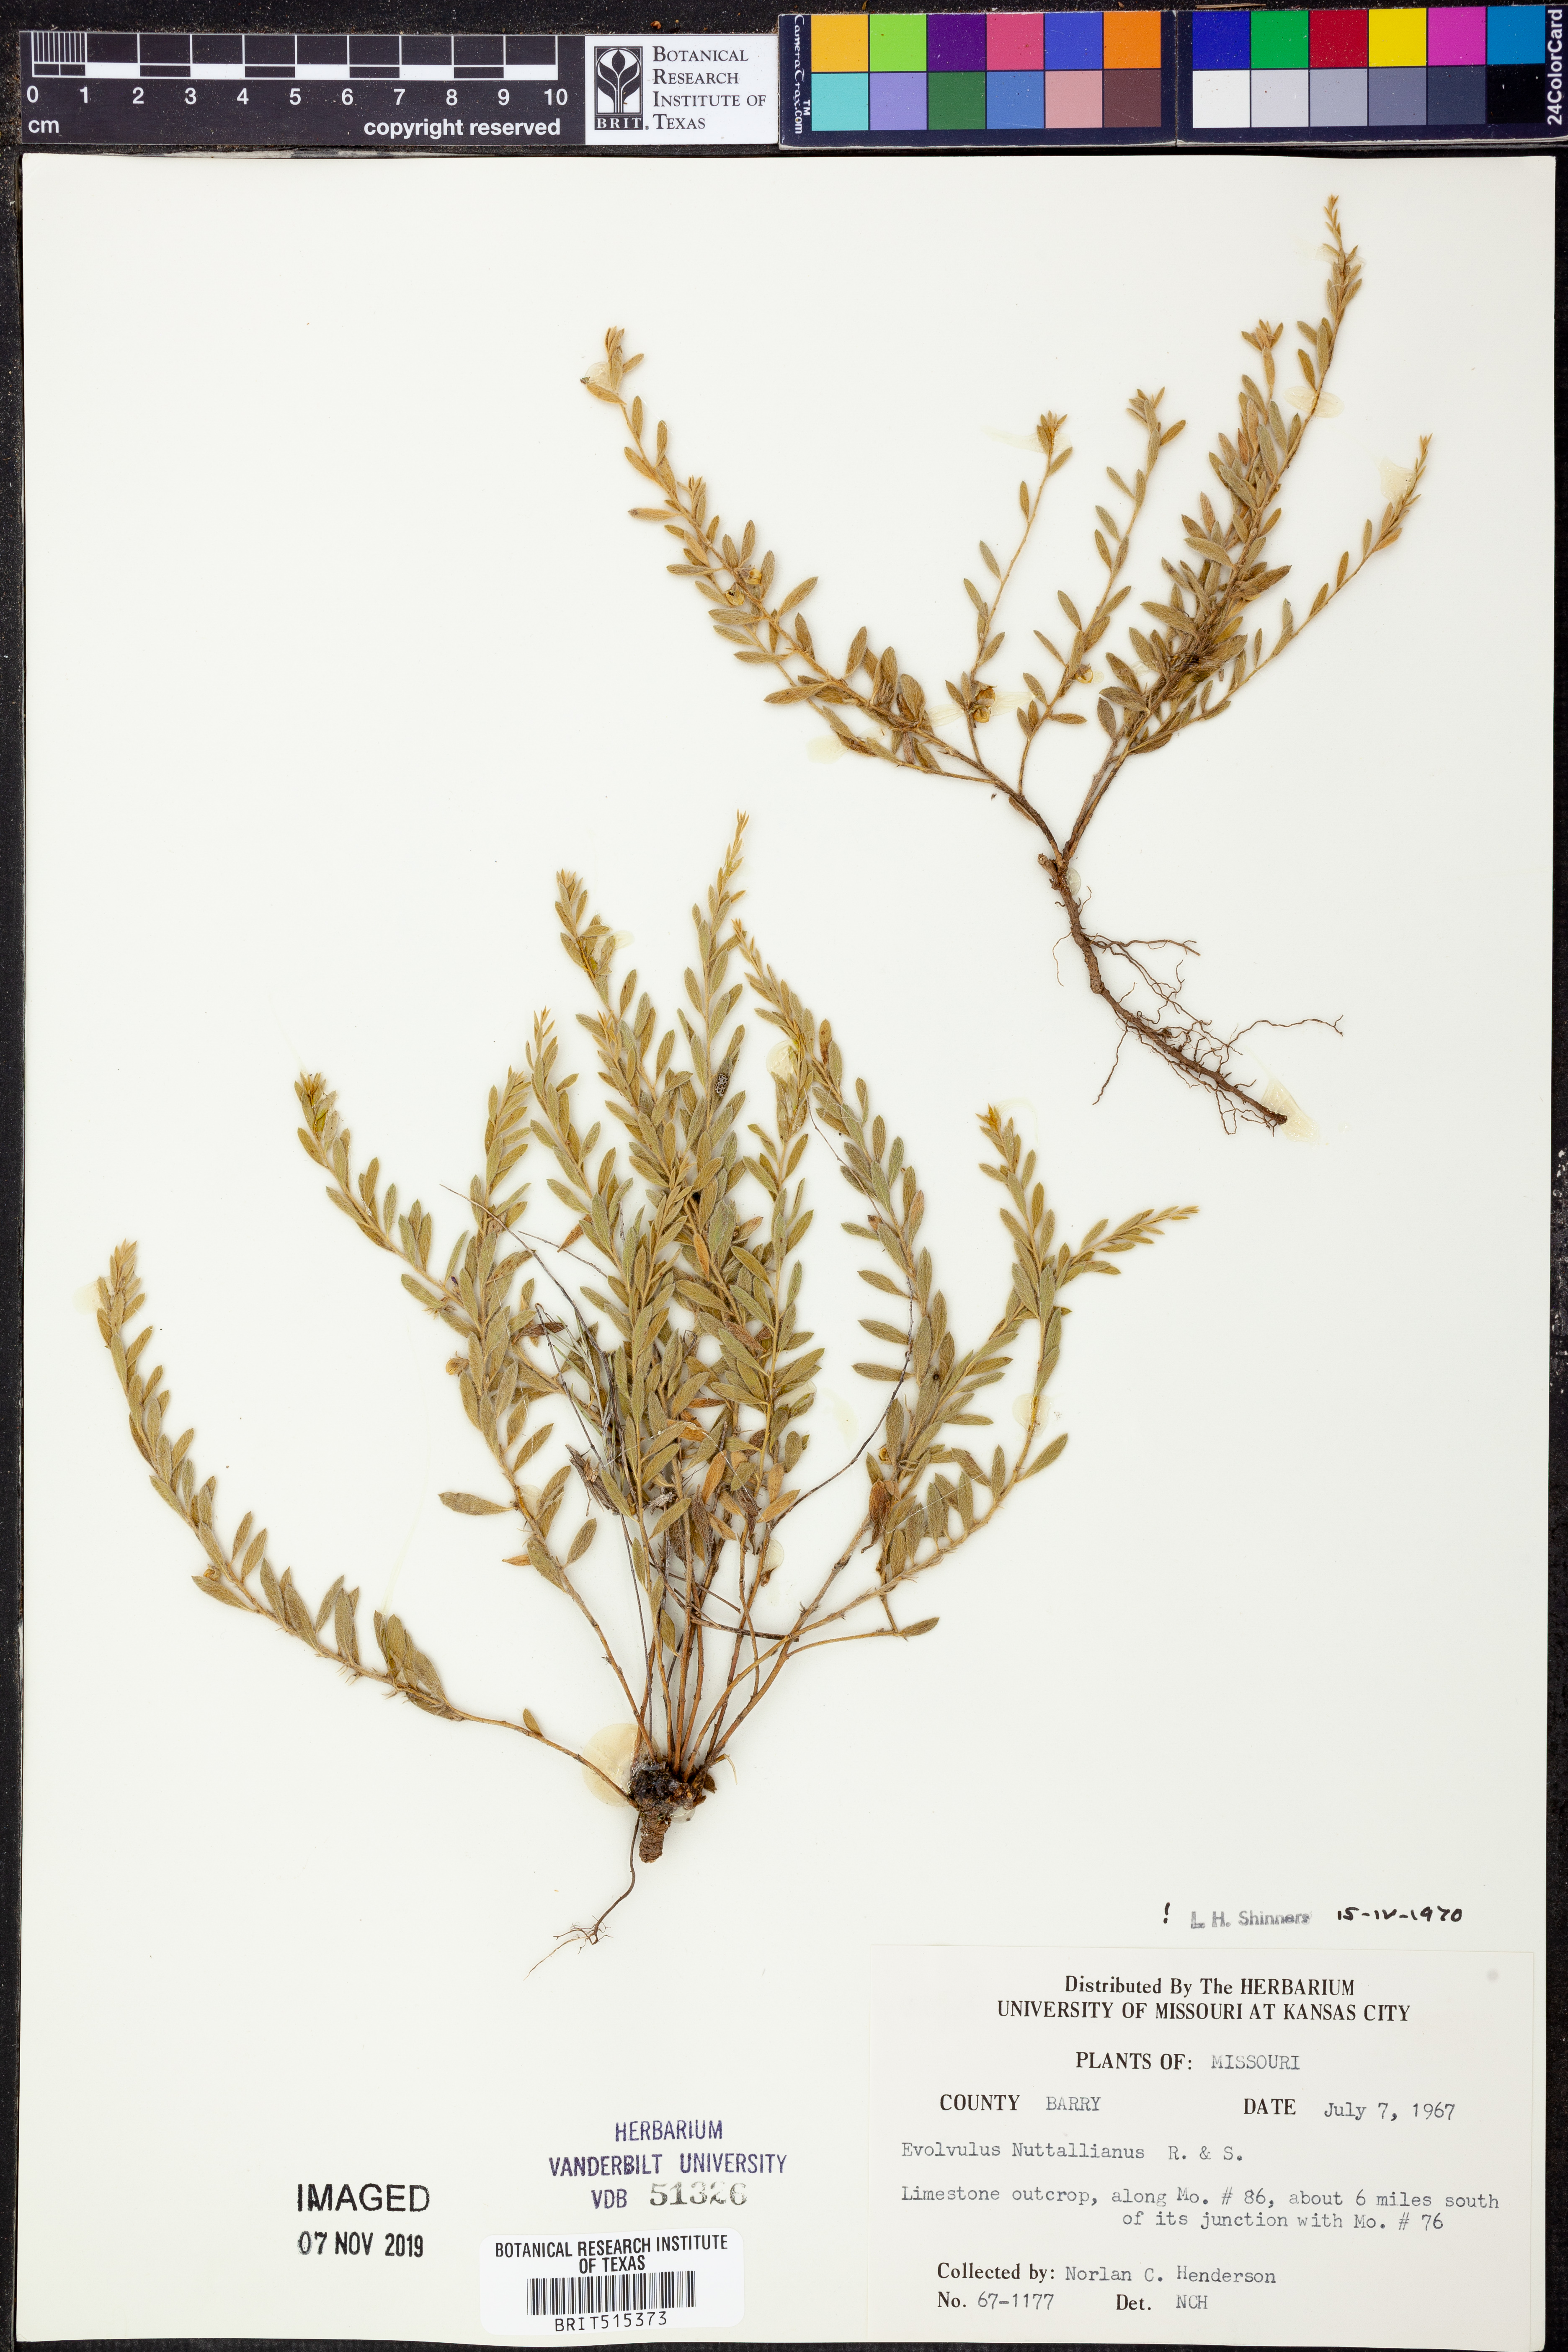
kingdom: Plantae
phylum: Tracheophyta
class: Magnoliopsida
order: Solanales
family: Convolvulaceae
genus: Evolvulus
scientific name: Evolvulus nuttallianus
